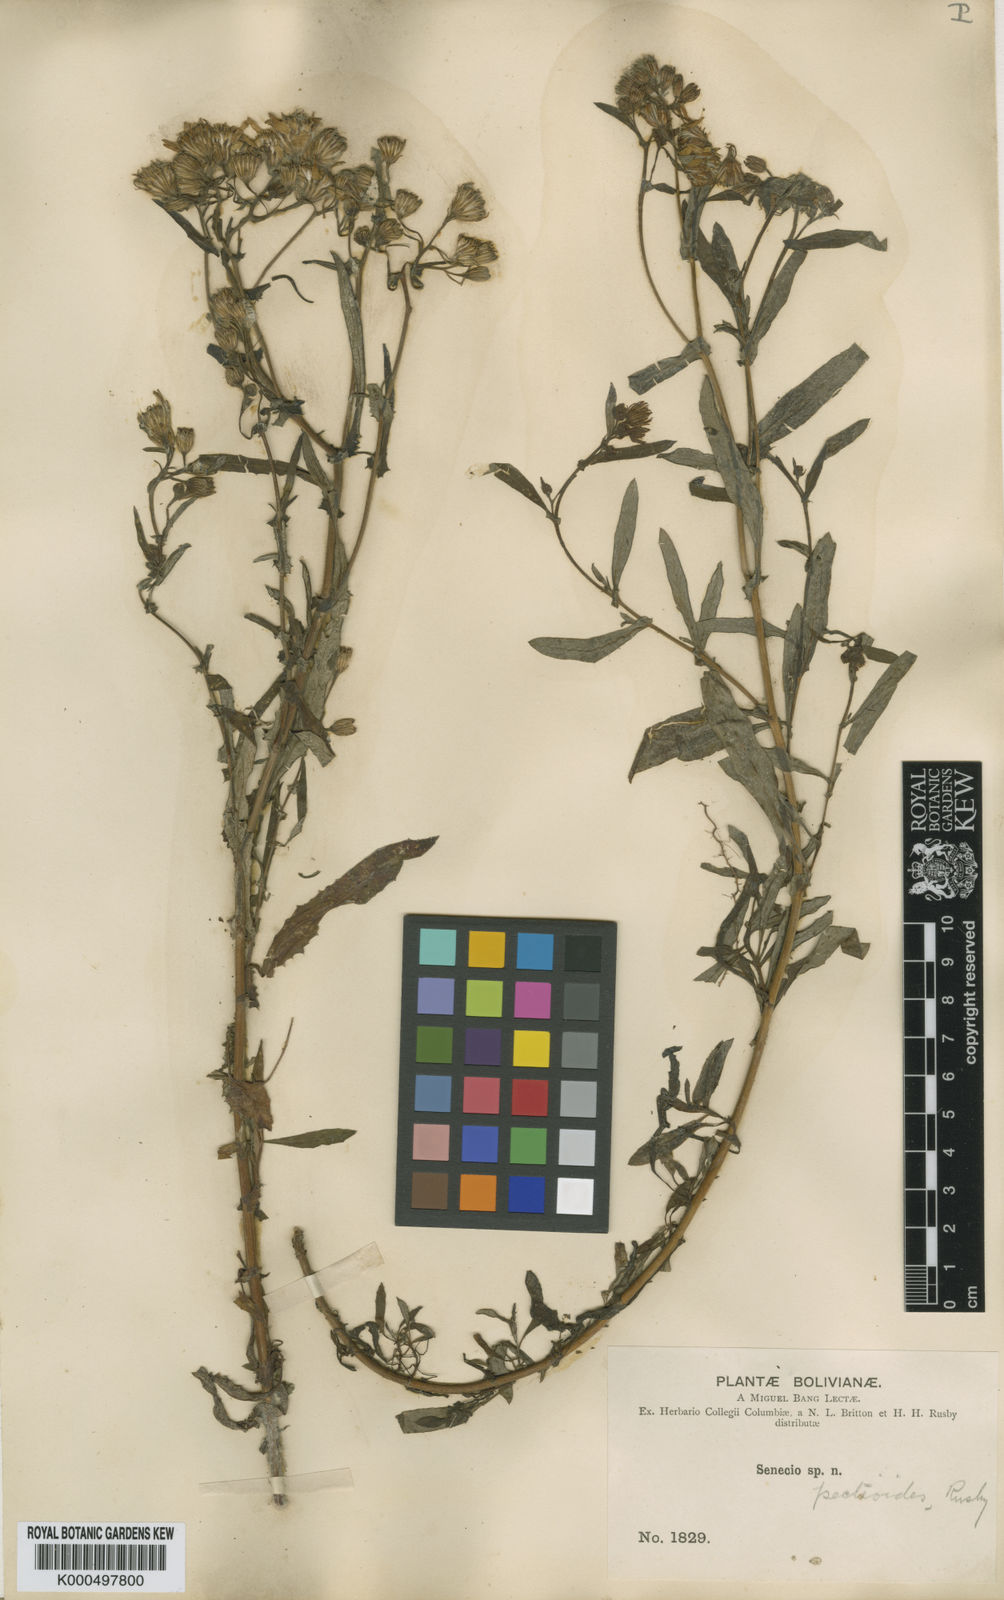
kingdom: Plantae
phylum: Tracheophyta
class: Magnoliopsida
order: Asterales
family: Asteraceae
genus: Senecio
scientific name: Senecio boliviensis
